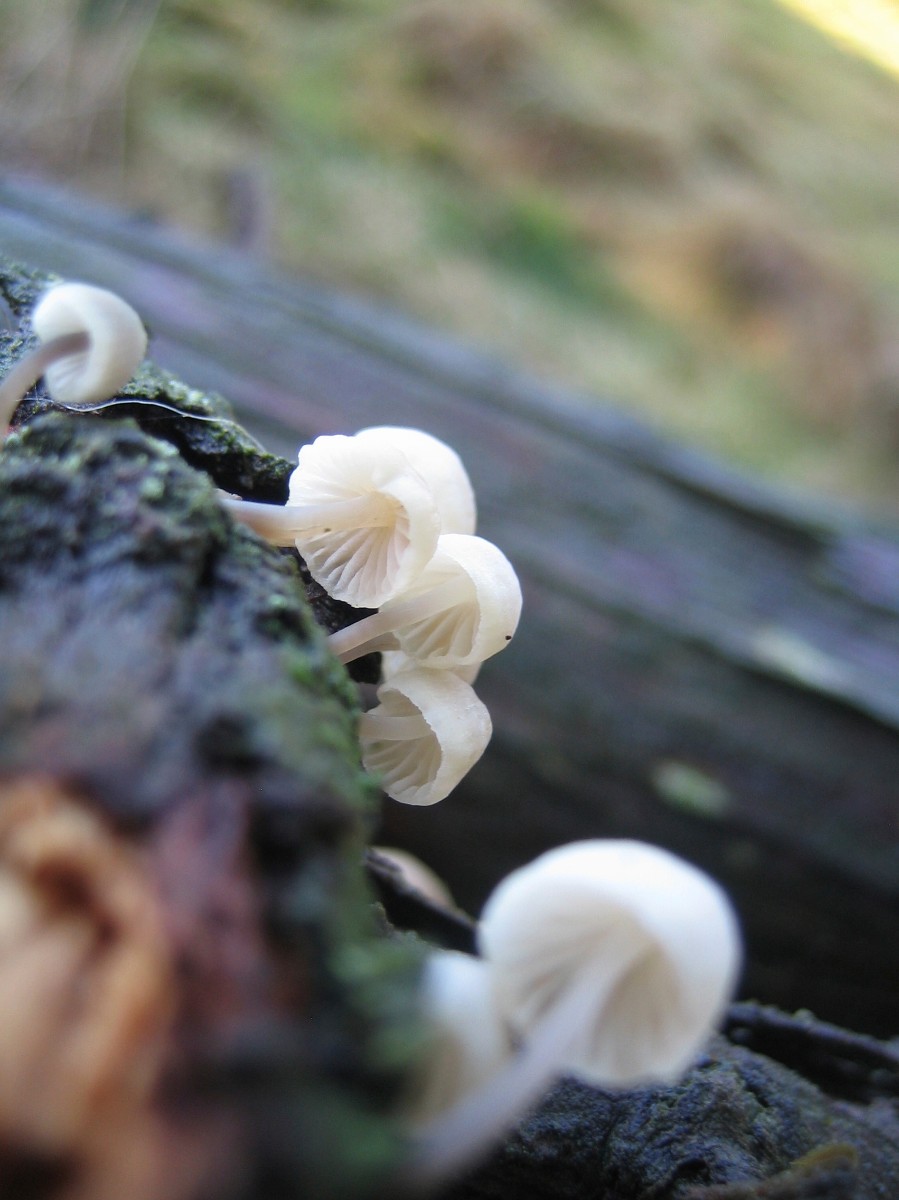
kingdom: Fungi
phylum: Basidiomycota
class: Agaricomycetes
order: Agaricales
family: Mycenaceae
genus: Mycena
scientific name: Mycena
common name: huesvamp
